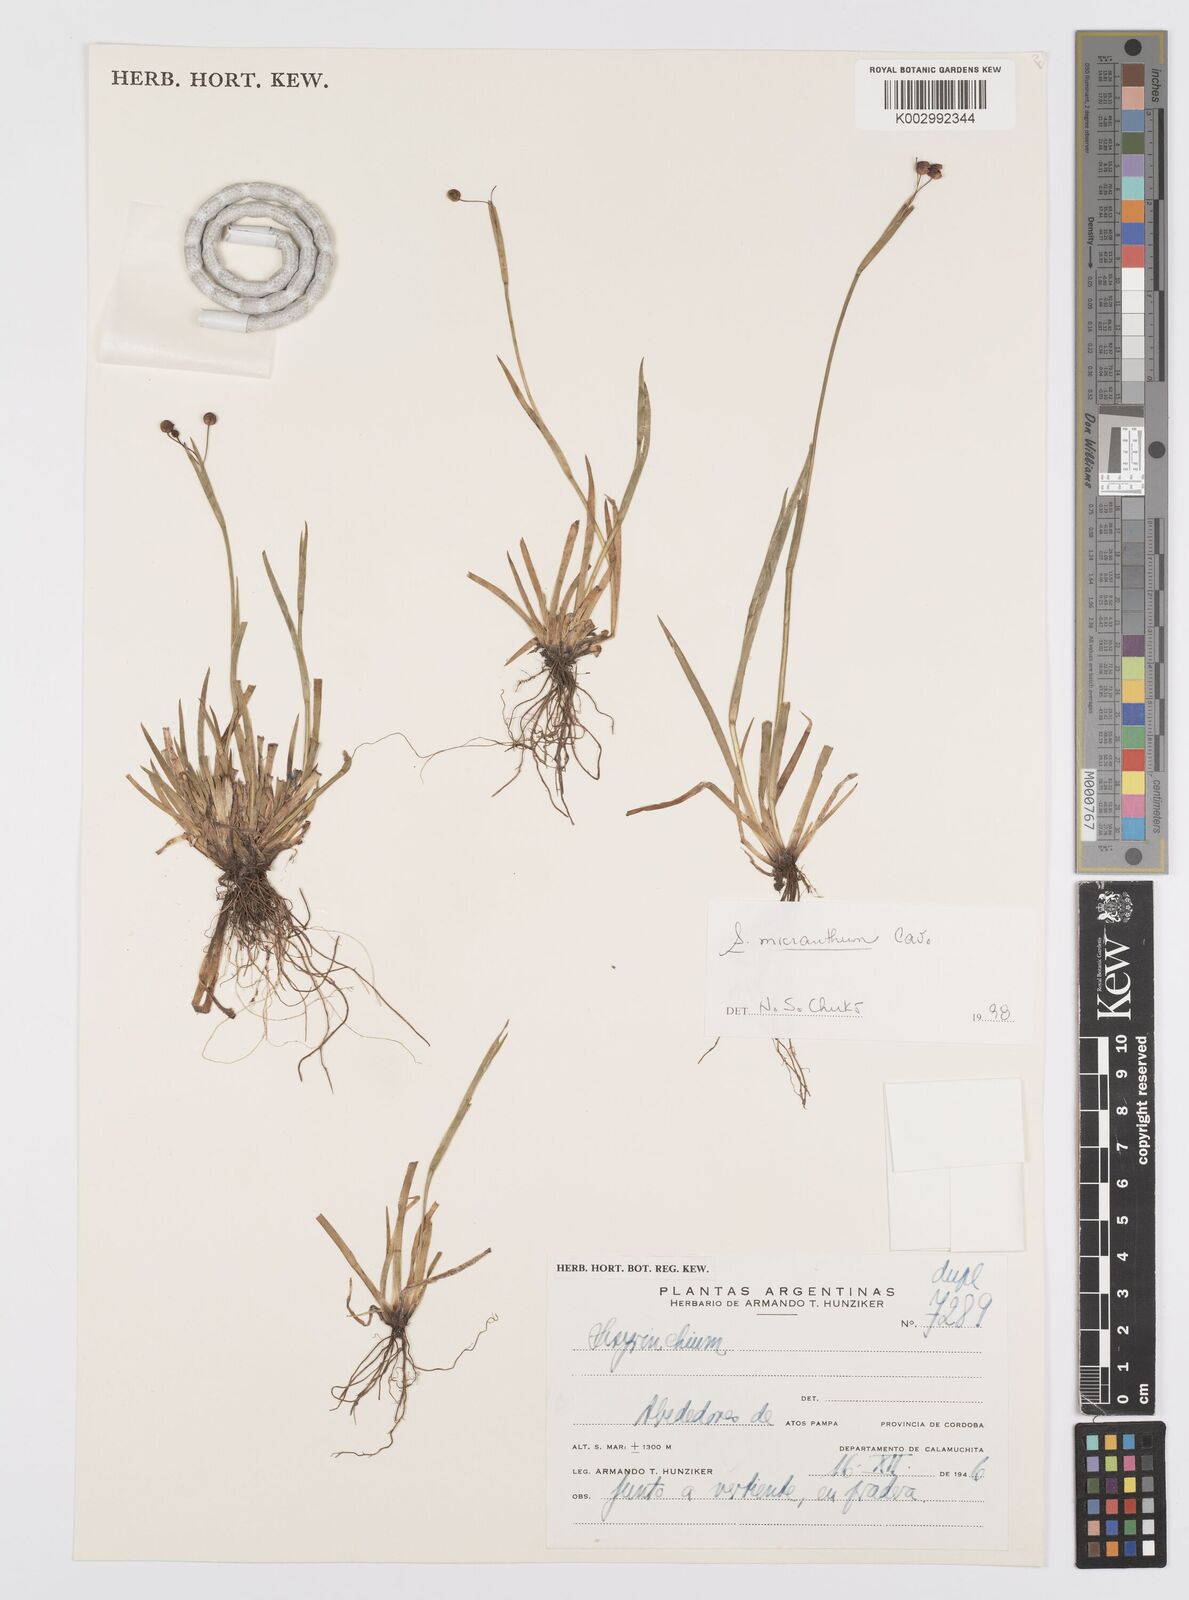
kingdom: Plantae
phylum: Tracheophyta
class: Liliopsida
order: Asparagales
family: Iridaceae
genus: Sisyrinchium
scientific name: Sisyrinchium micranthum
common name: Bermuda pigroot
